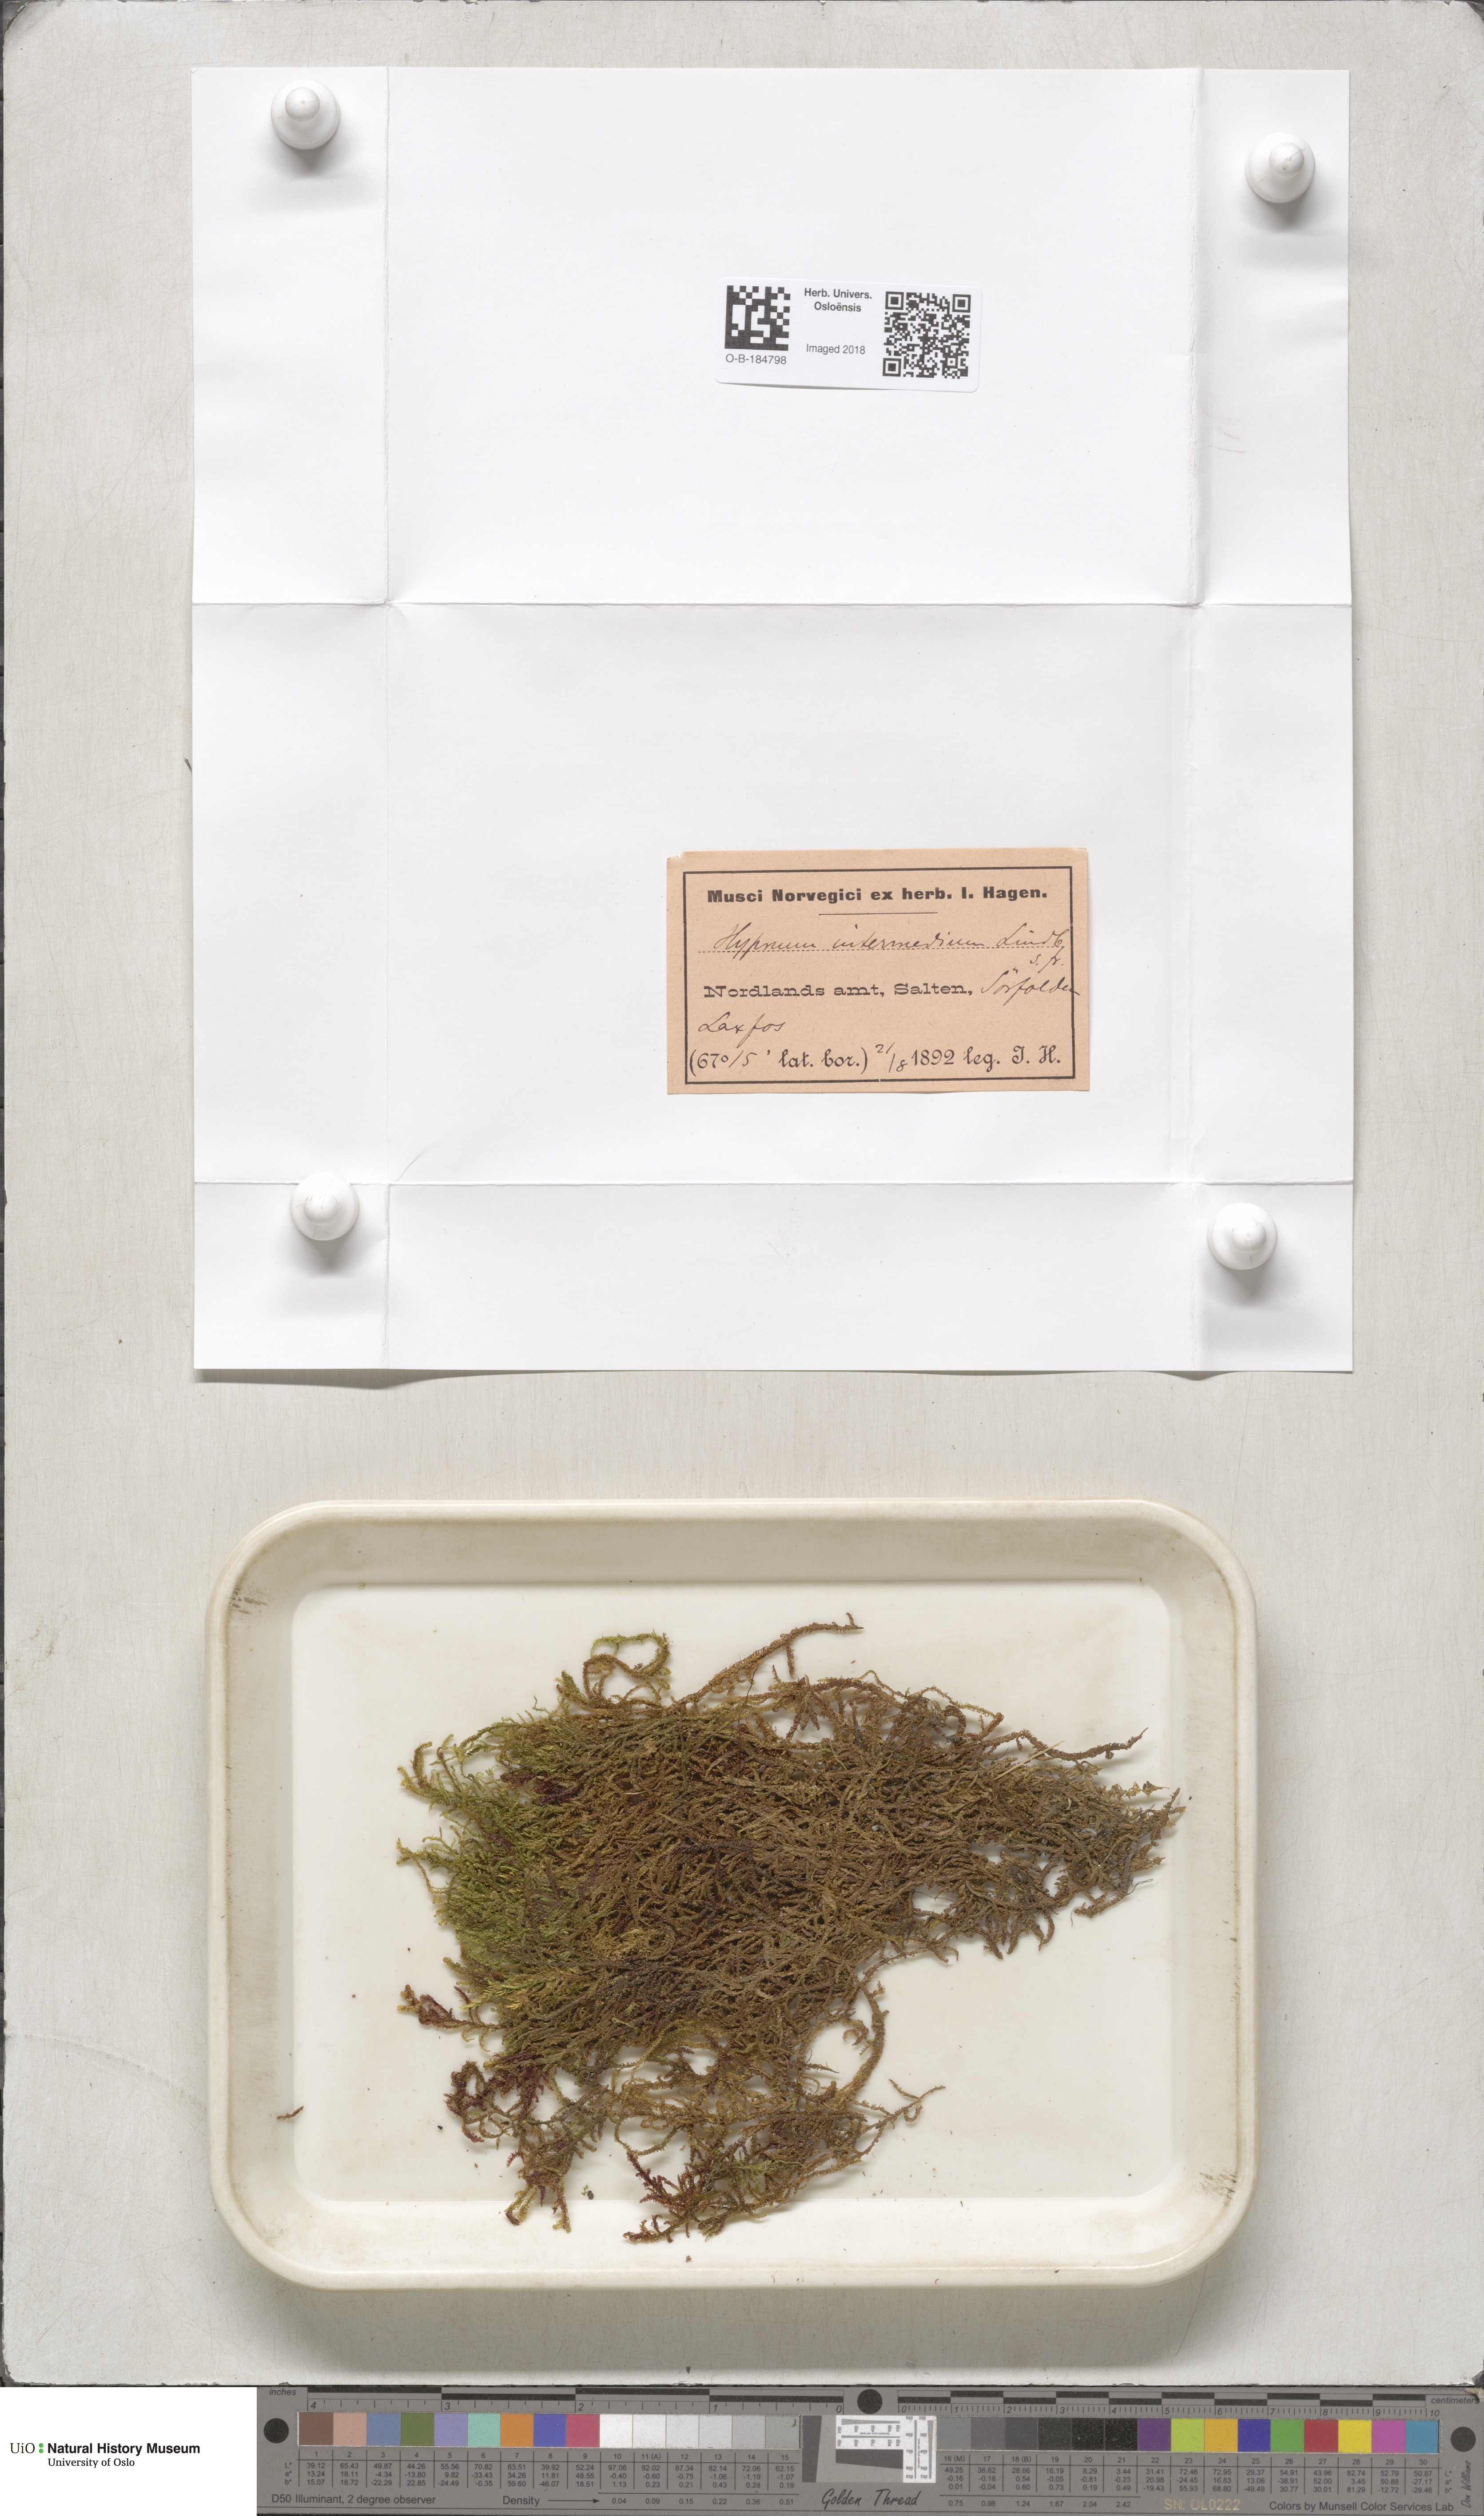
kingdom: Plantae
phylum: Bryophyta
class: Bryopsida
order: Hypnales
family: Scorpidiaceae
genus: Scorpidium
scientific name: Scorpidium cossonii
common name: Cosson's hook moss
